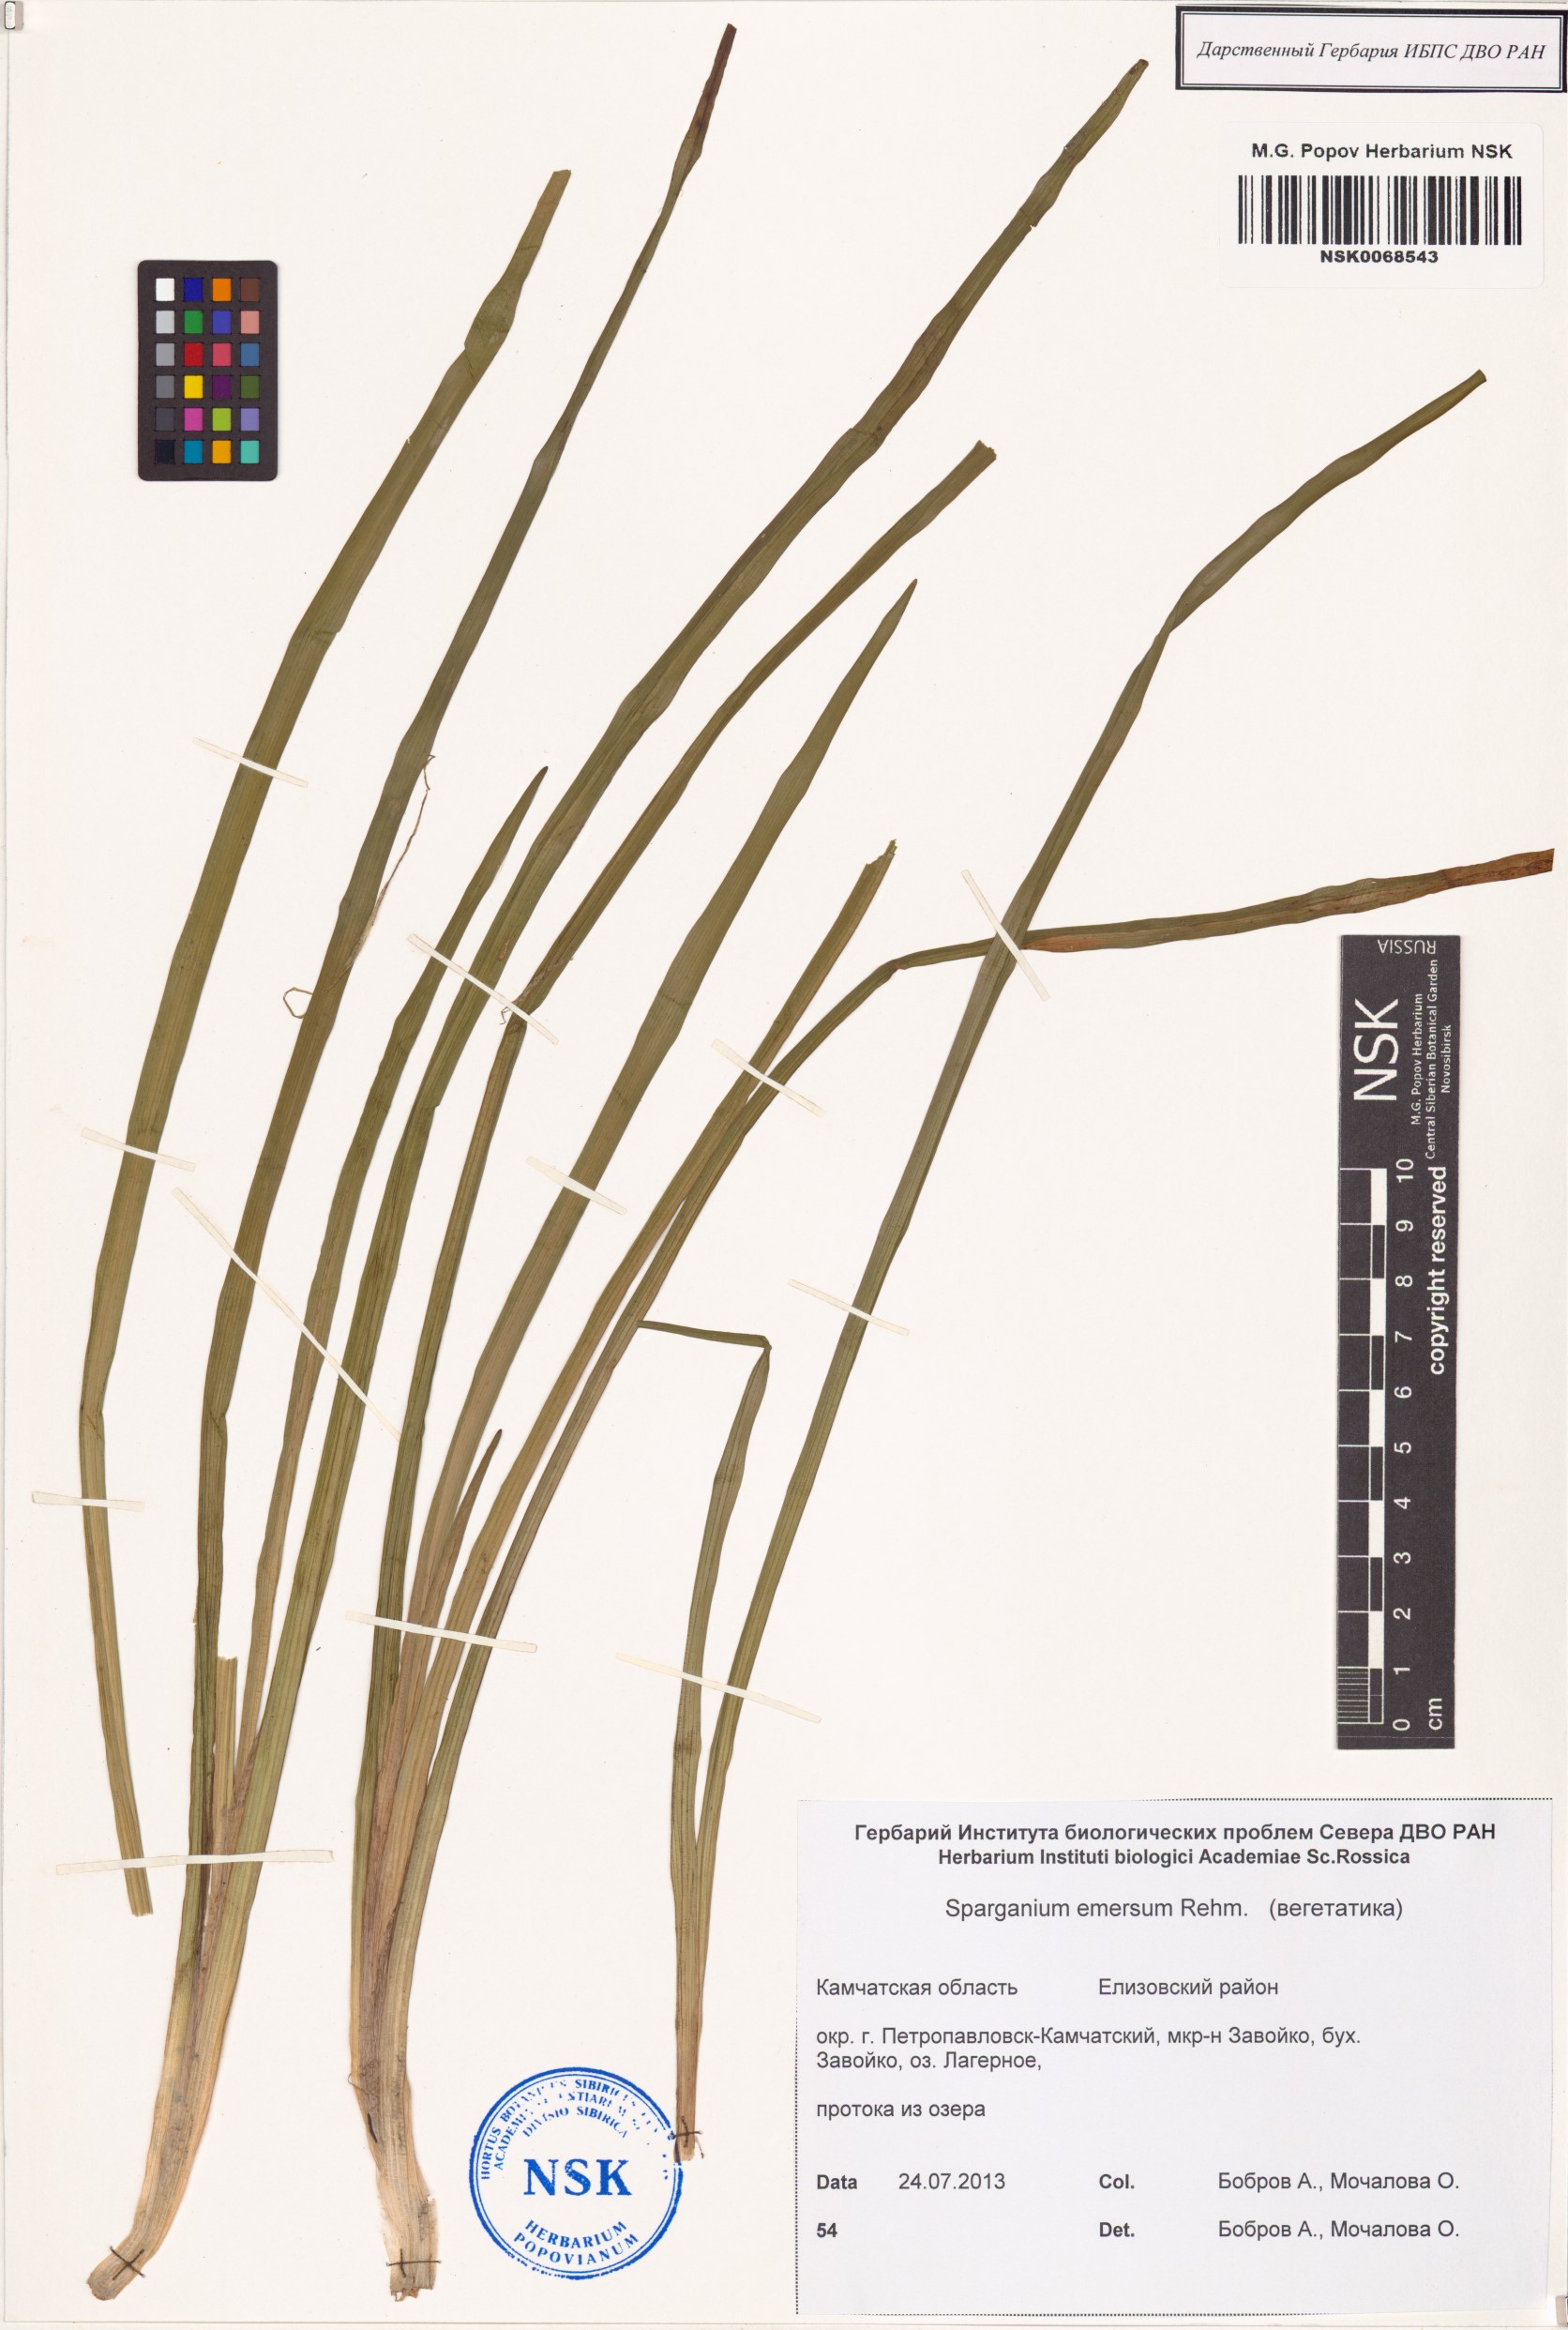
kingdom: Plantae
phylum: Tracheophyta
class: Liliopsida
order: Poales
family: Typhaceae
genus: Sparganium
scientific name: Sparganium emersum
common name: Unbranched bur-reed
